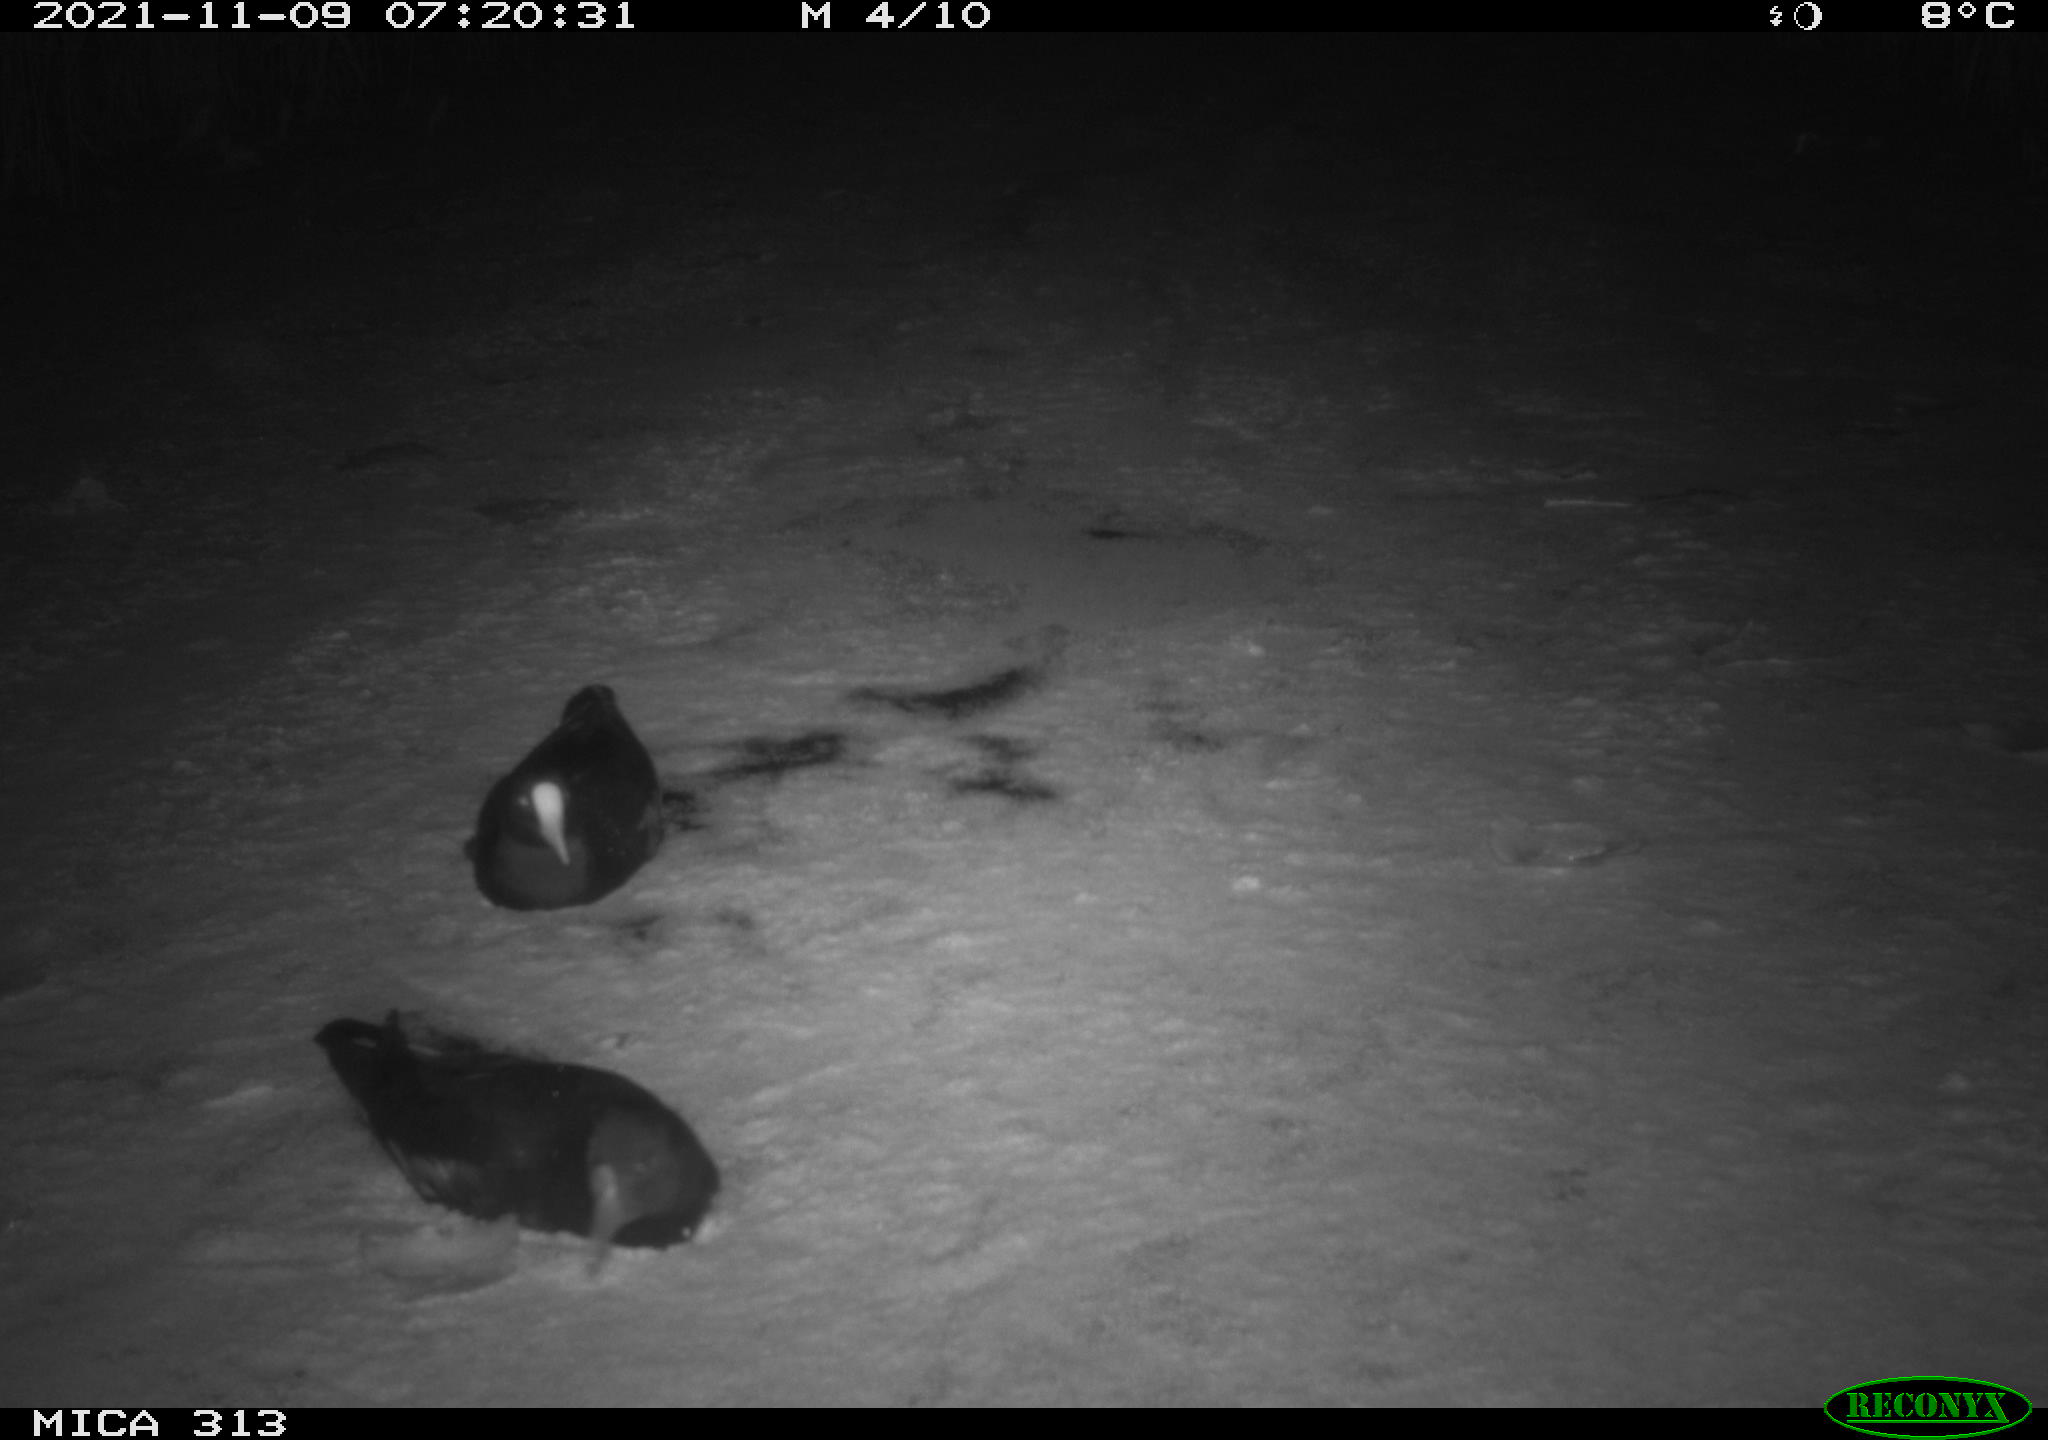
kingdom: Animalia
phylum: Chordata
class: Aves
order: Gruiformes
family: Rallidae
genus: Fulica
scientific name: Fulica atra
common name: Eurasian coot
